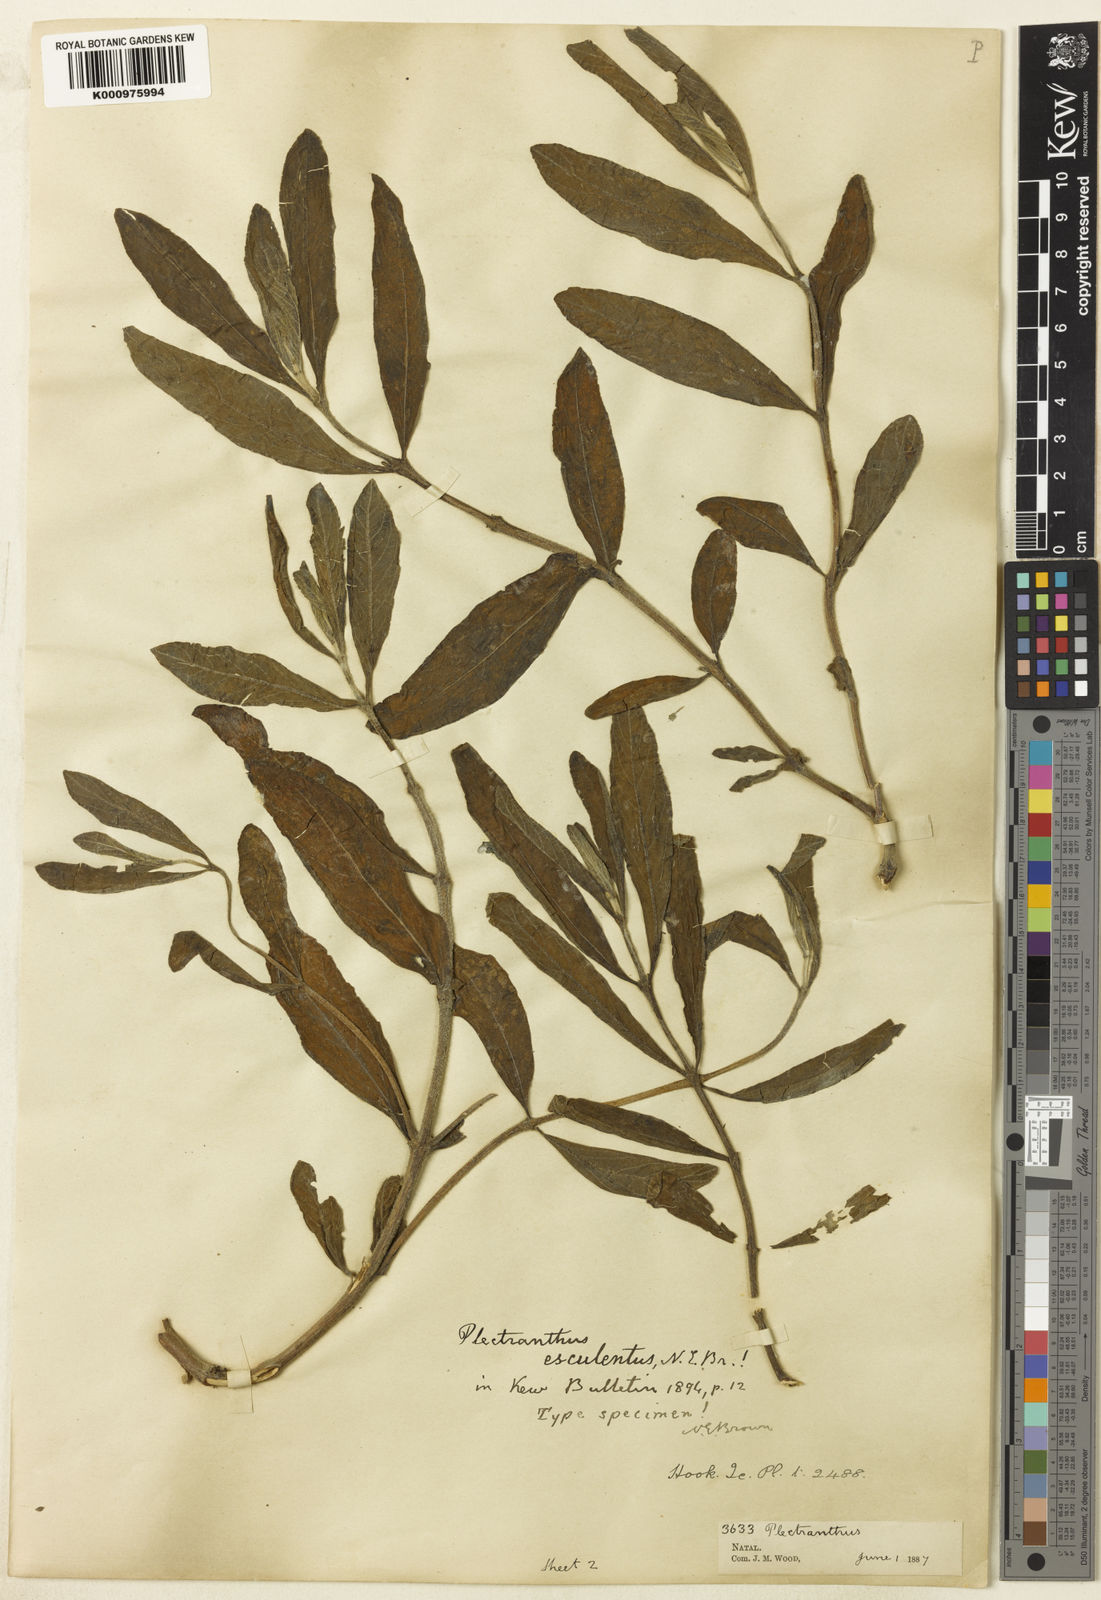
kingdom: Plantae
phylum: Tracheophyta
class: Magnoliopsida
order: Lamiales
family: Lamiaceae
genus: Coleus
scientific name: Coleus esculentus
